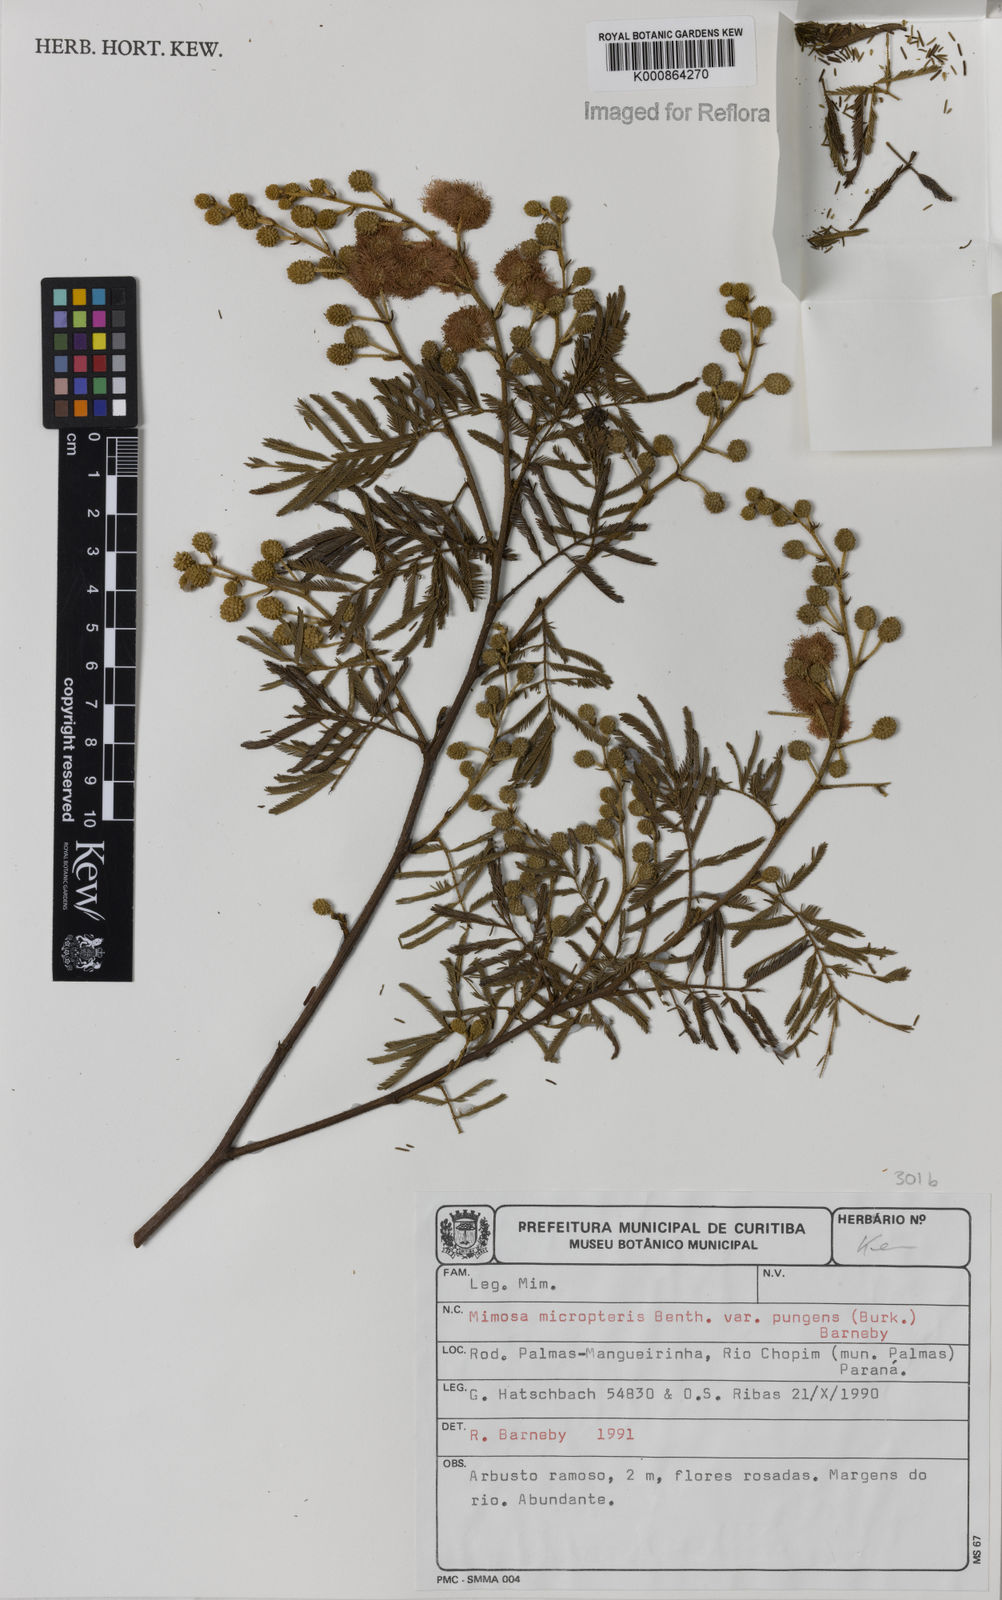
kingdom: Plantae
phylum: Tracheophyta
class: Magnoliopsida
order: Fabales
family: Fabaceae
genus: Mimosa
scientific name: Mimosa micropteris
